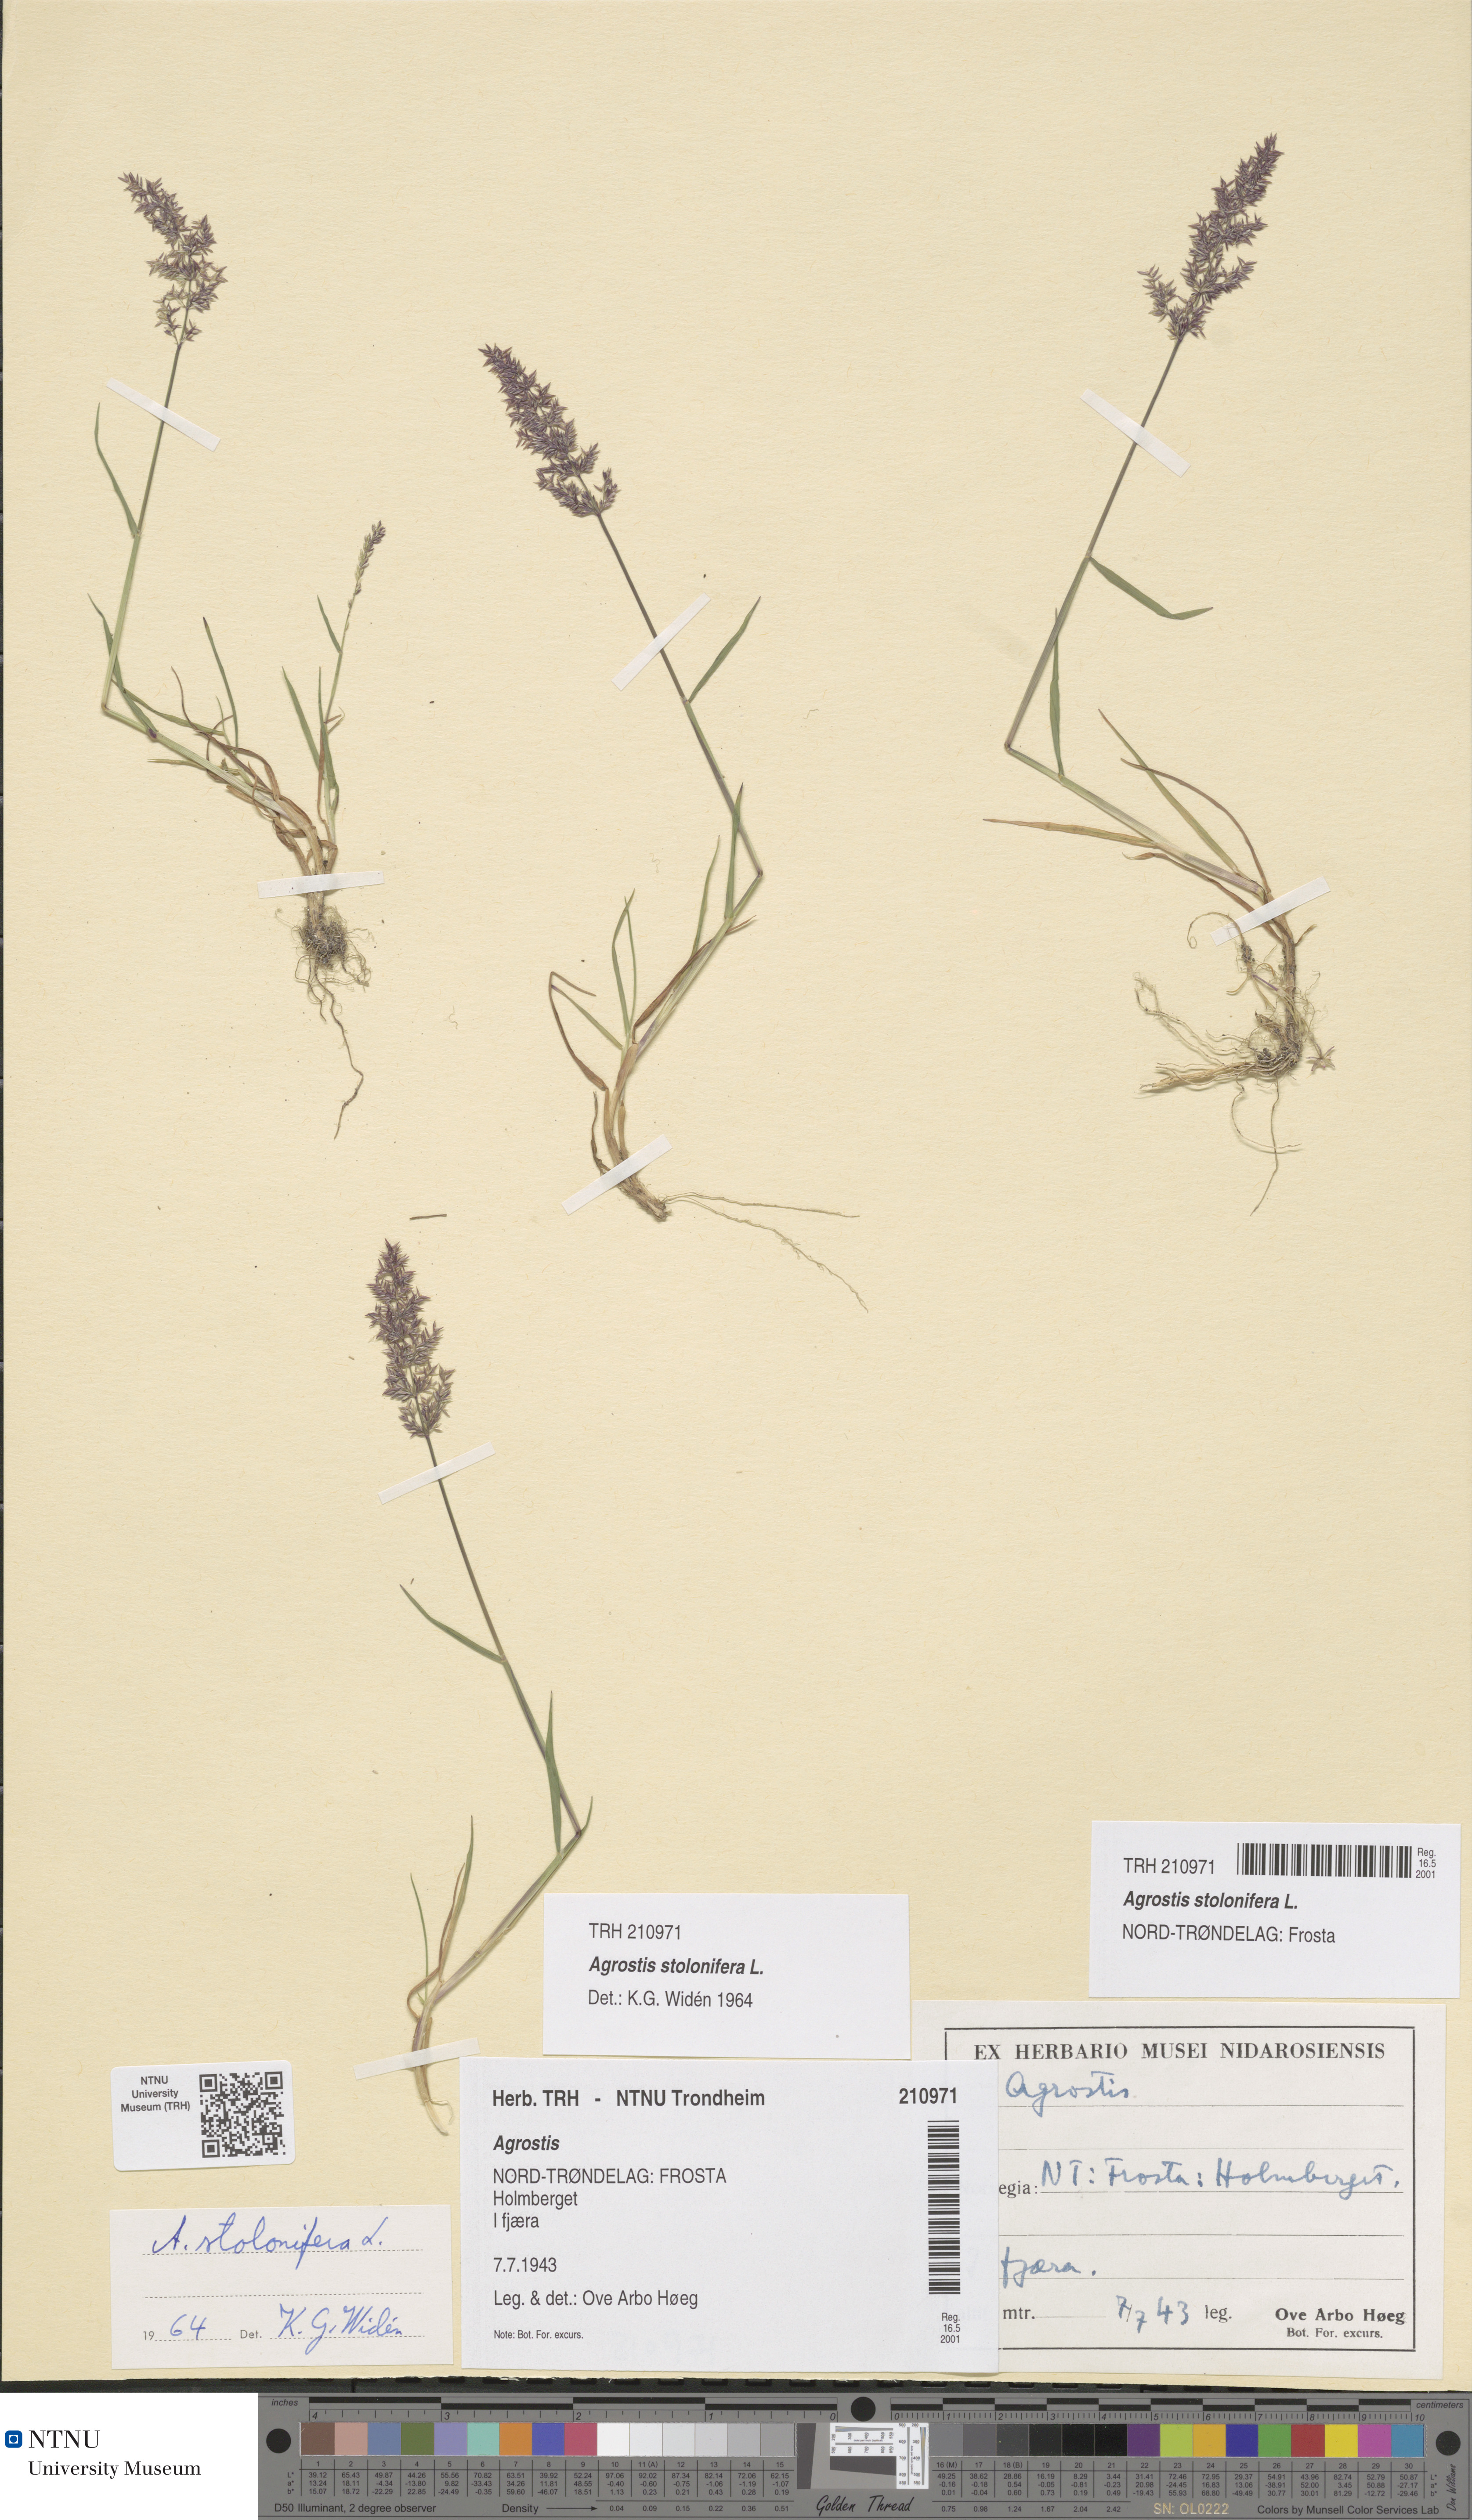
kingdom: Plantae
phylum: Tracheophyta
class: Liliopsida
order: Poales
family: Poaceae
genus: Agrostis
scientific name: Agrostis stolonifera
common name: Creeping bentgrass
